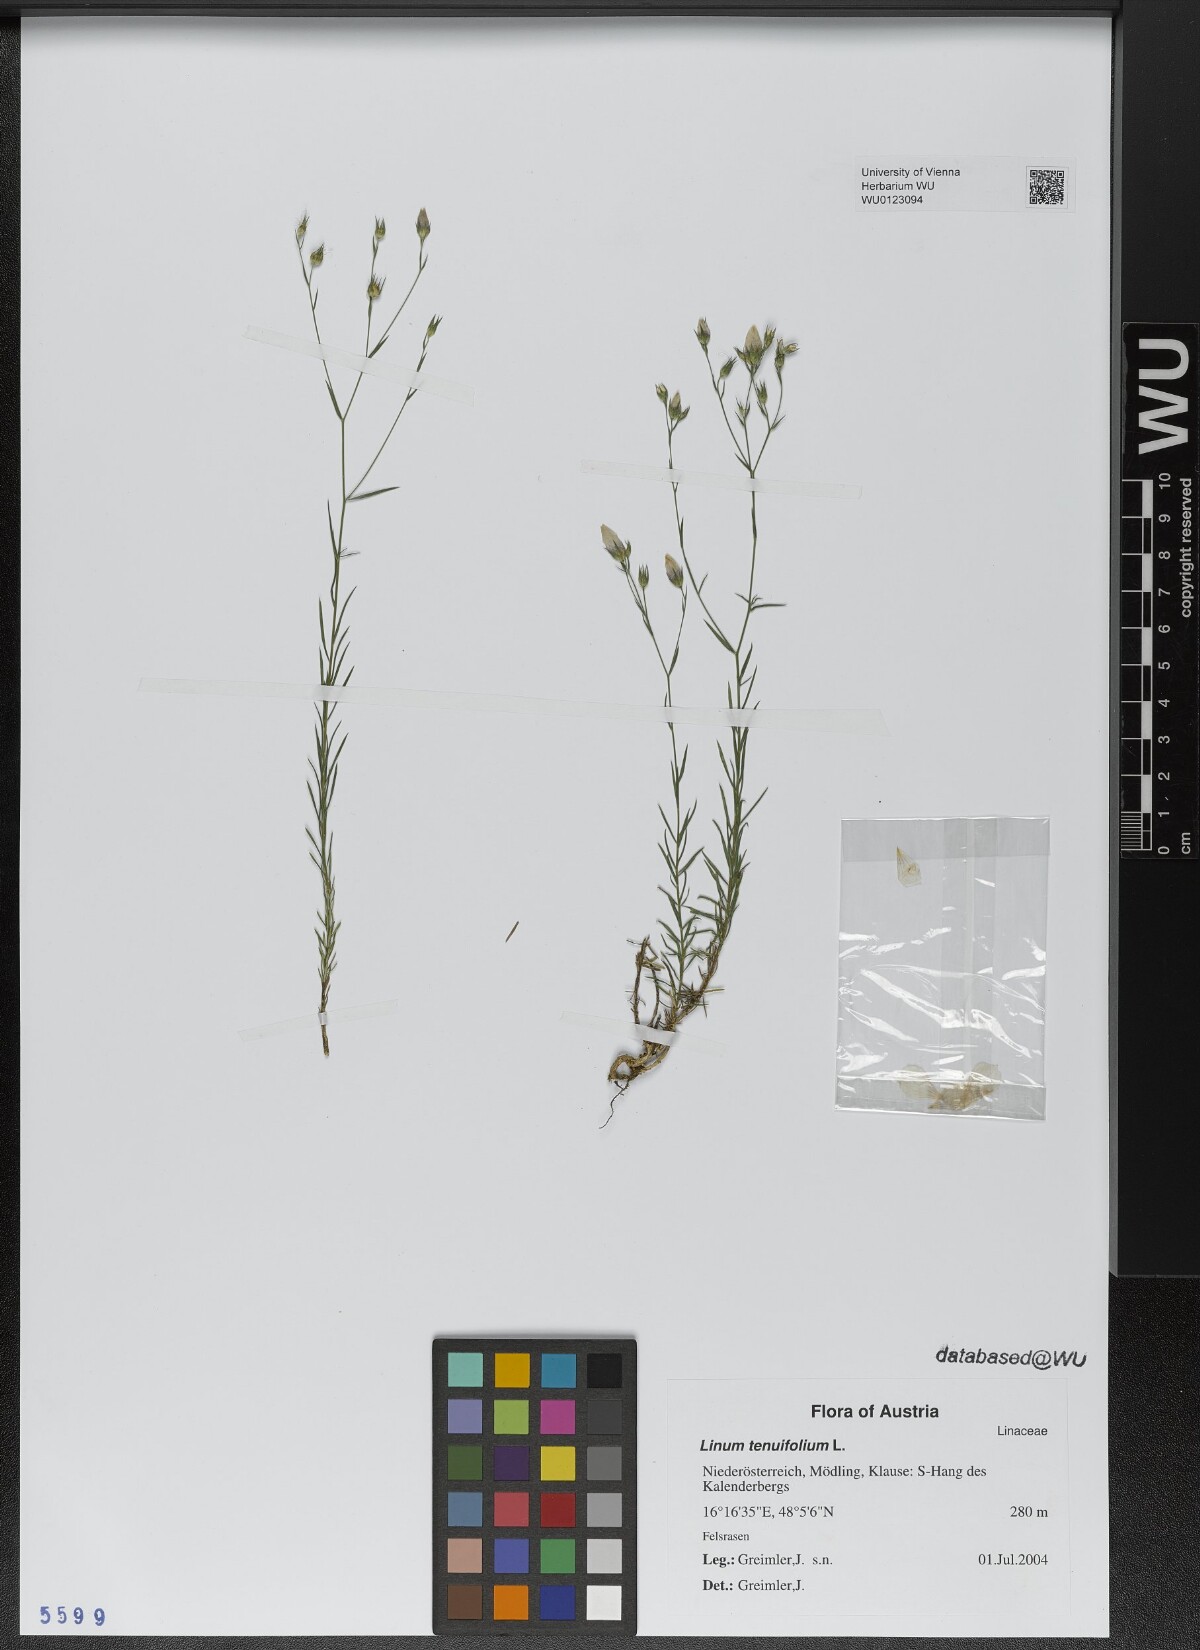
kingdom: Plantae
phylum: Tracheophyta
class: Magnoliopsida
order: Malpighiales
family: Linaceae
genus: Linum
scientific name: Linum tenuifolium
